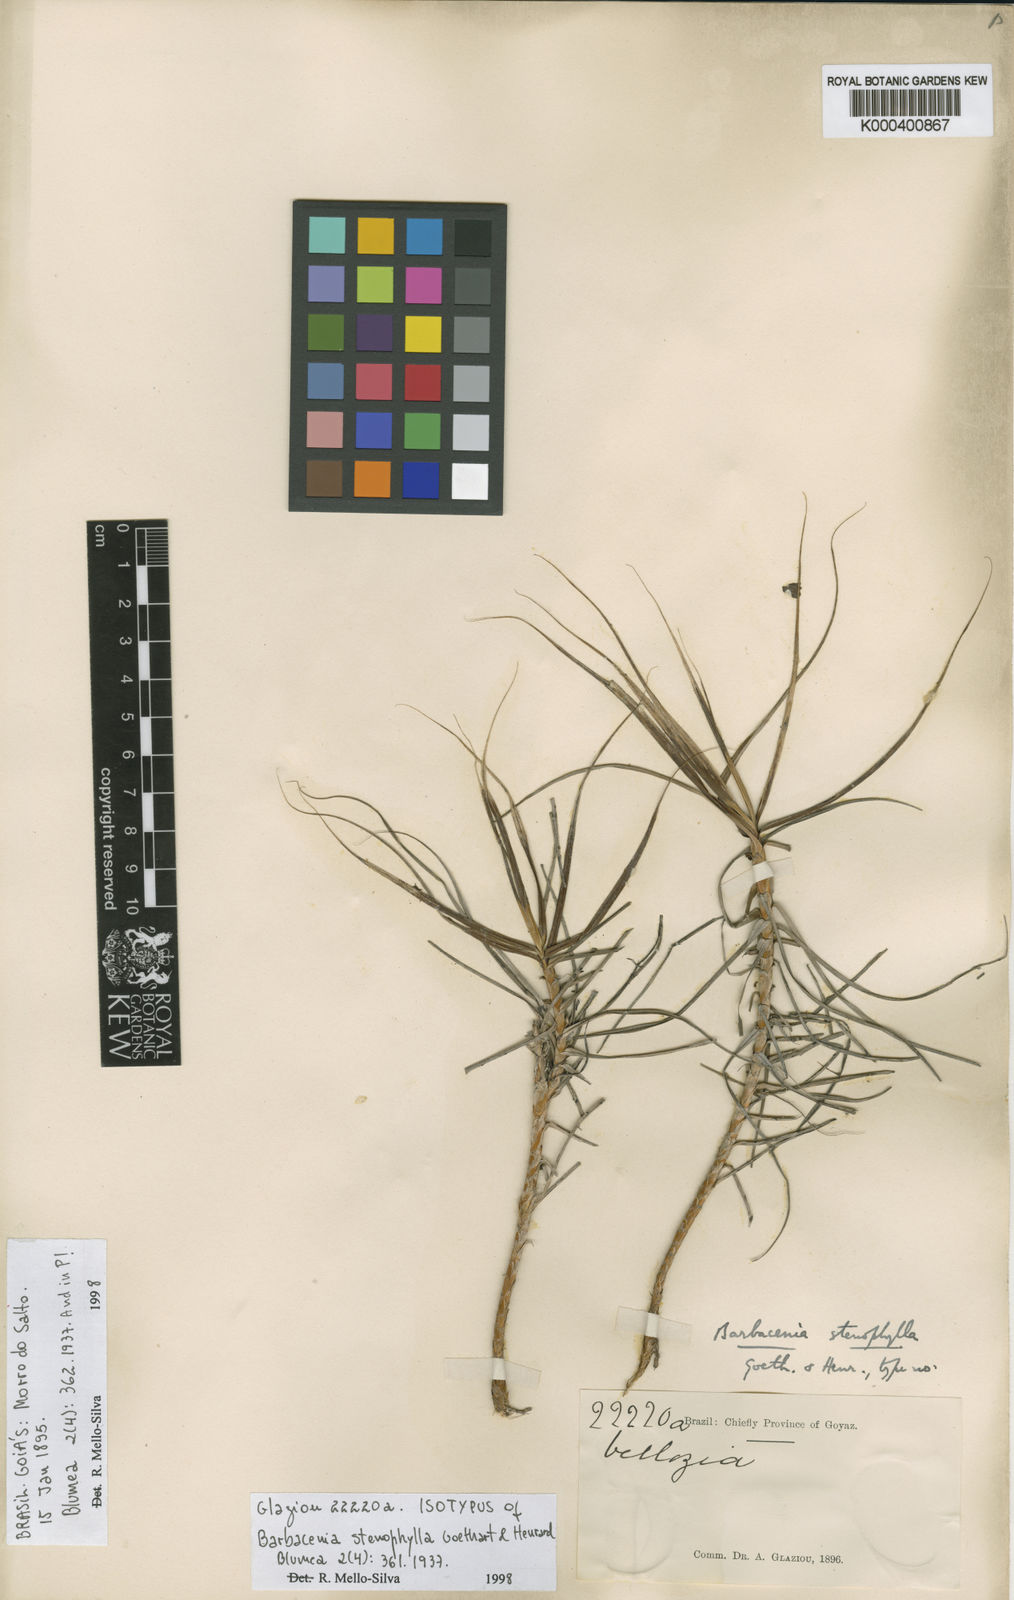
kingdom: Plantae
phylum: Tracheophyta
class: Liliopsida
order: Pandanales
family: Velloziaceae
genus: Barbacenia
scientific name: Barbacenia stenophylla
